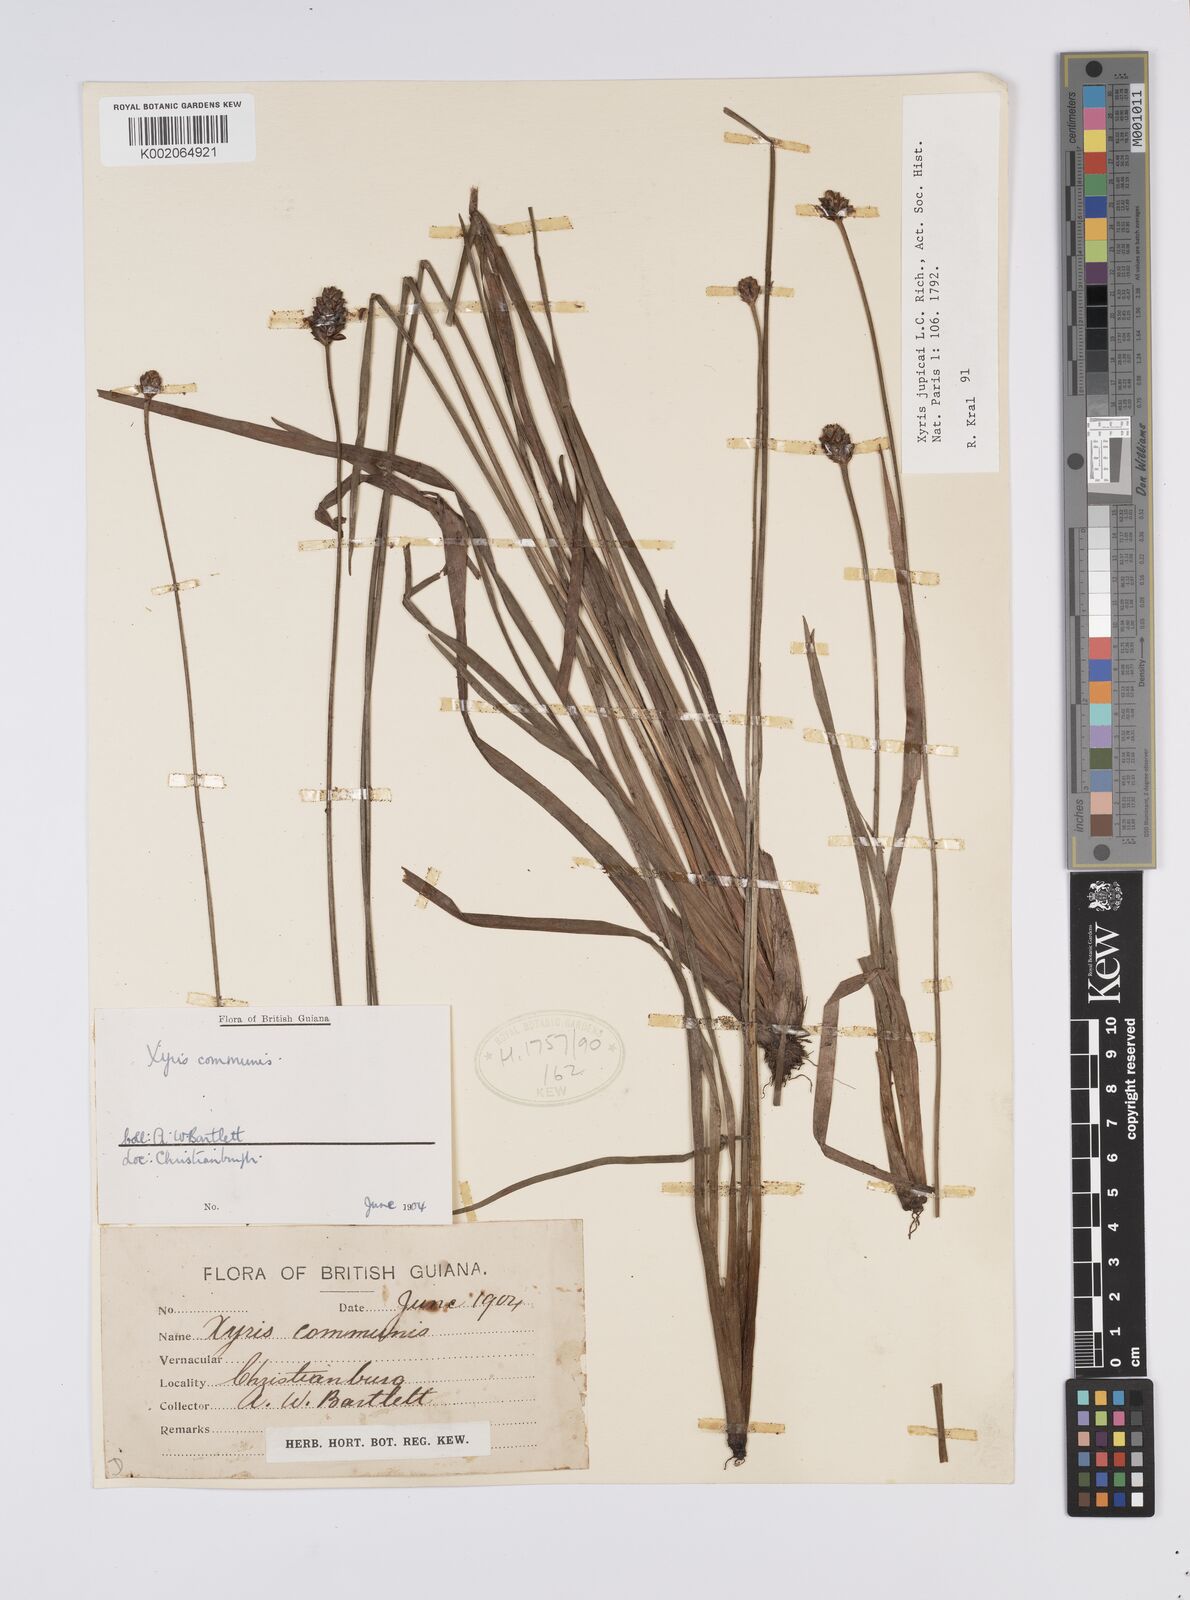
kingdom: Plantae
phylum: Tracheophyta
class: Liliopsida
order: Poales
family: Xyridaceae
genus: Xyris
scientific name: Xyris jupicai
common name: Richard's yelloweyed grass
